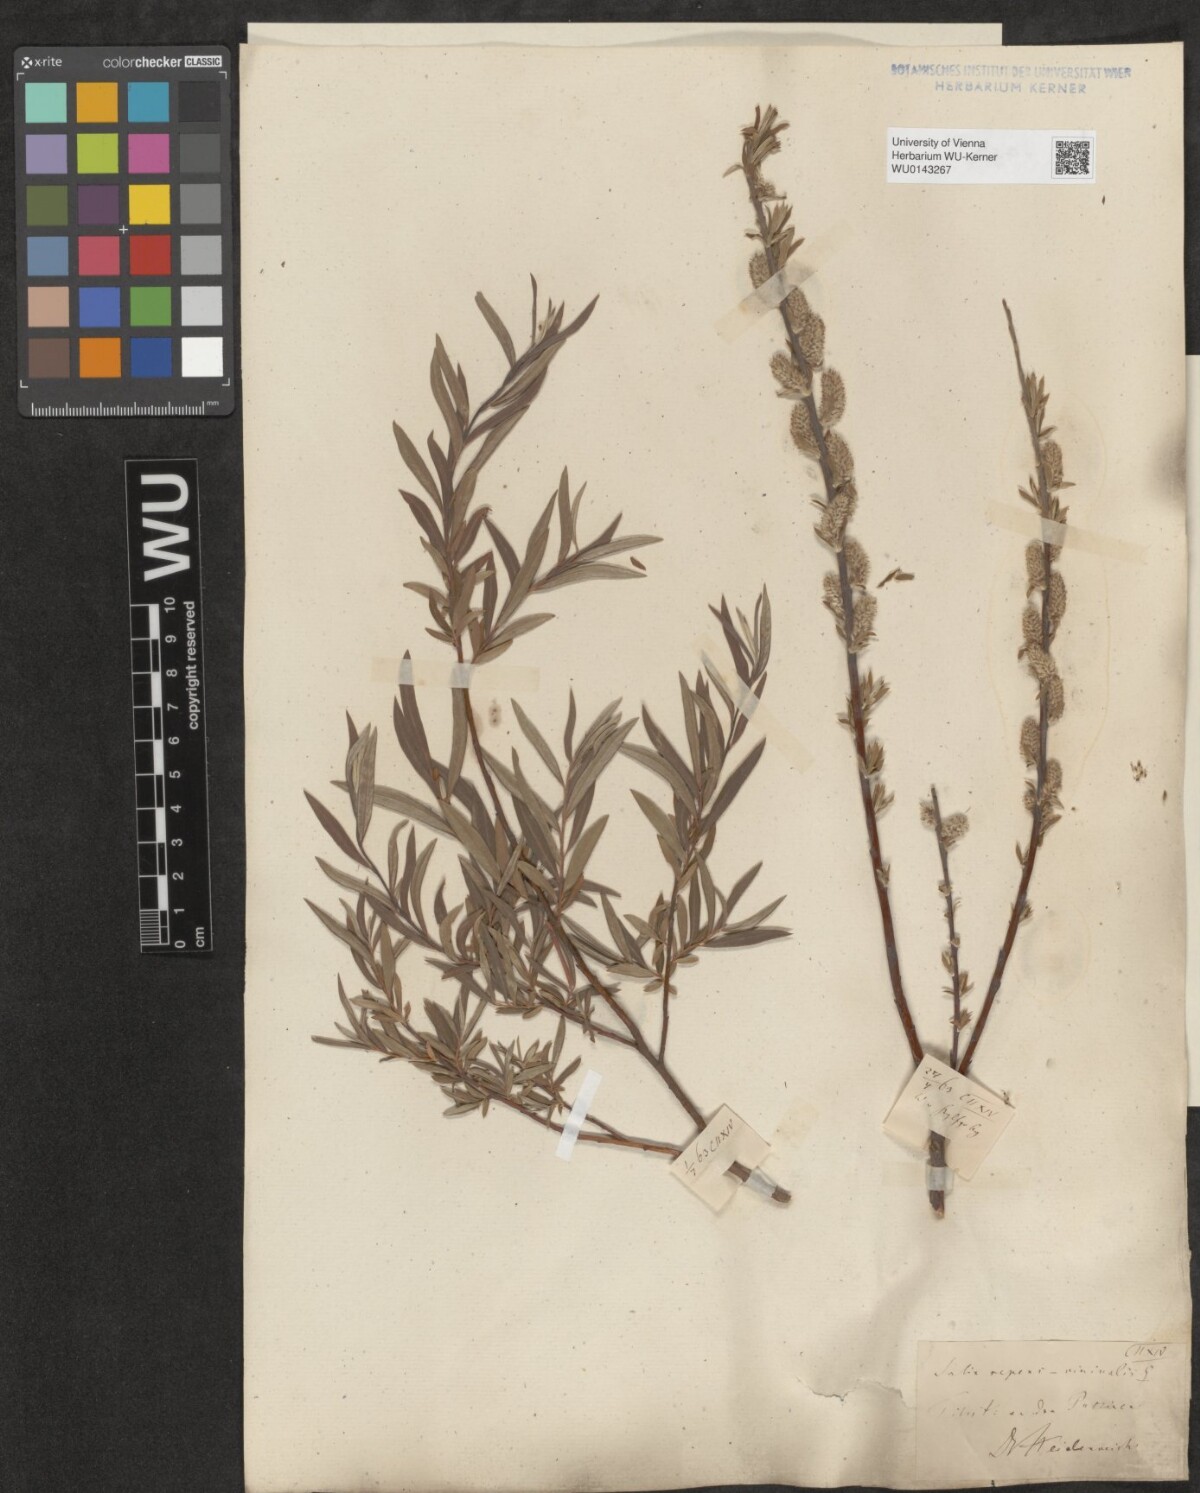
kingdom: Plantae
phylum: Tracheophyta
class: Magnoliopsida
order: Malpighiales
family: Salicaceae
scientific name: Salicaceae
